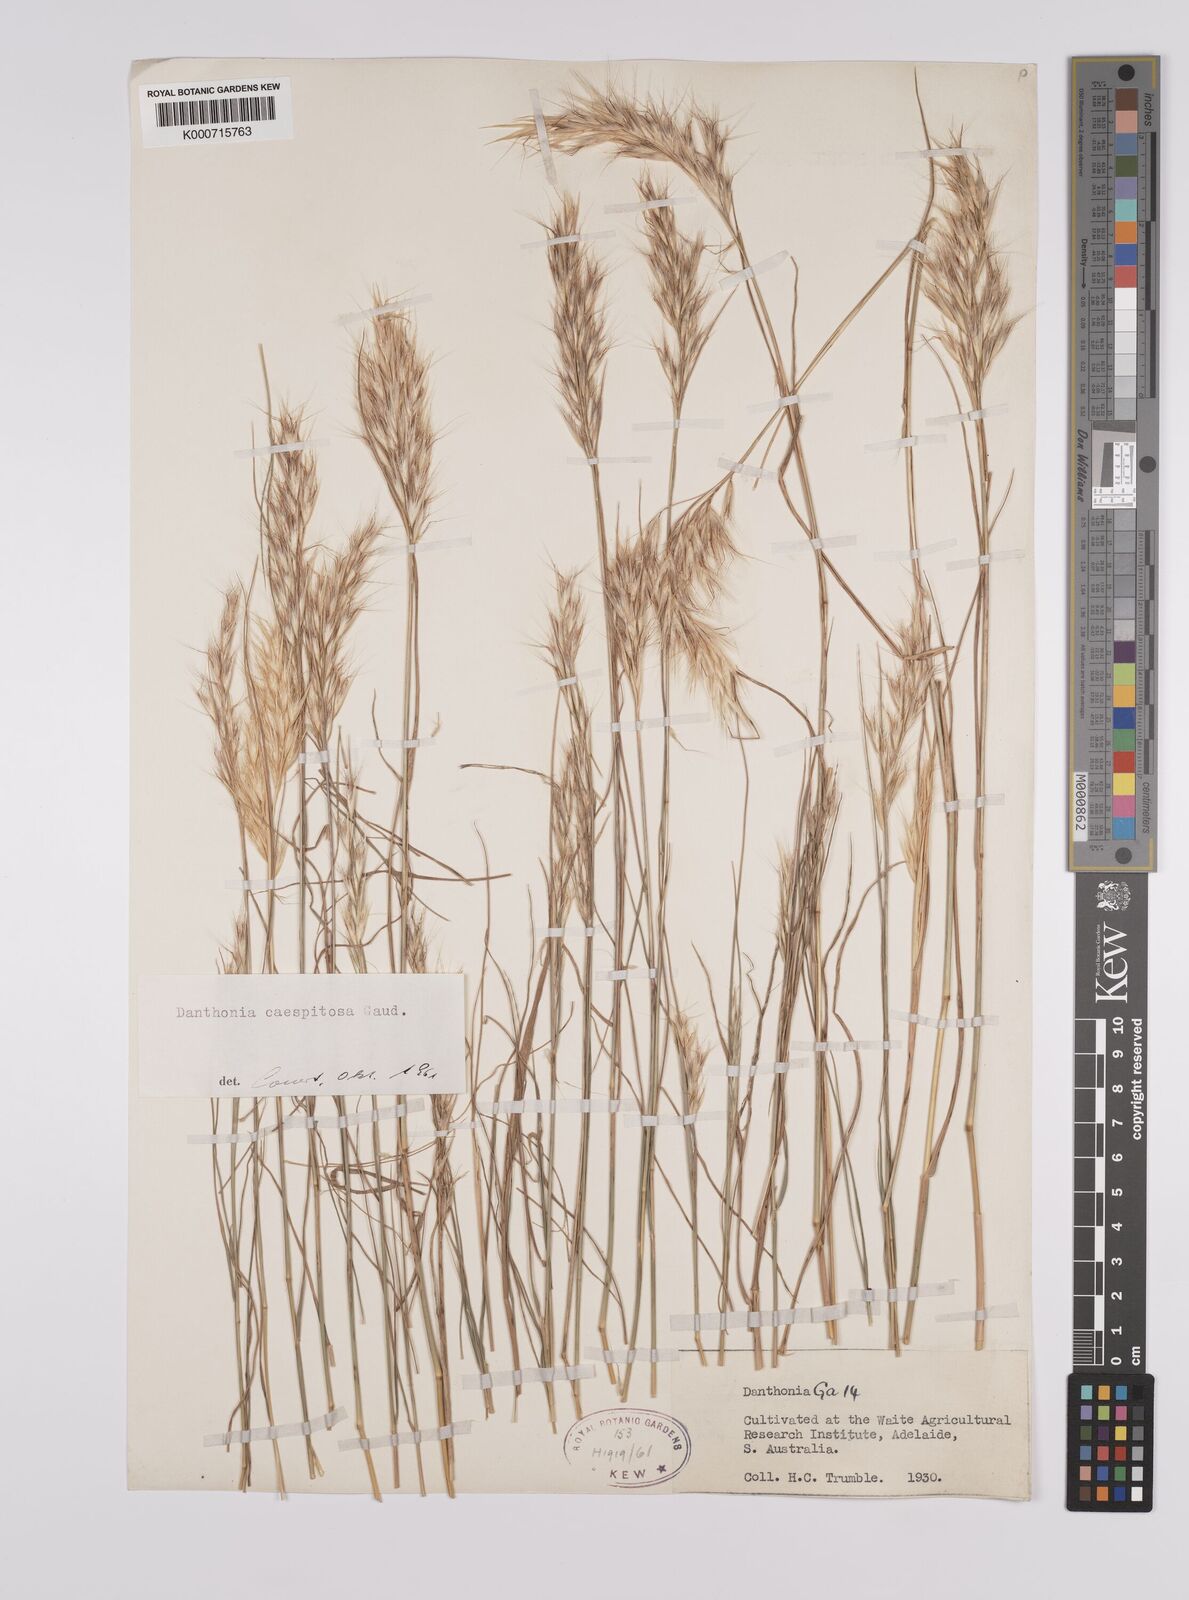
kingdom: Plantae
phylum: Tracheophyta
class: Liliopsida
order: Poales
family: Poaceae
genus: Rytidosperma
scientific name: Rytidosperma caespitosum
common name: Tufted wallaby grass
